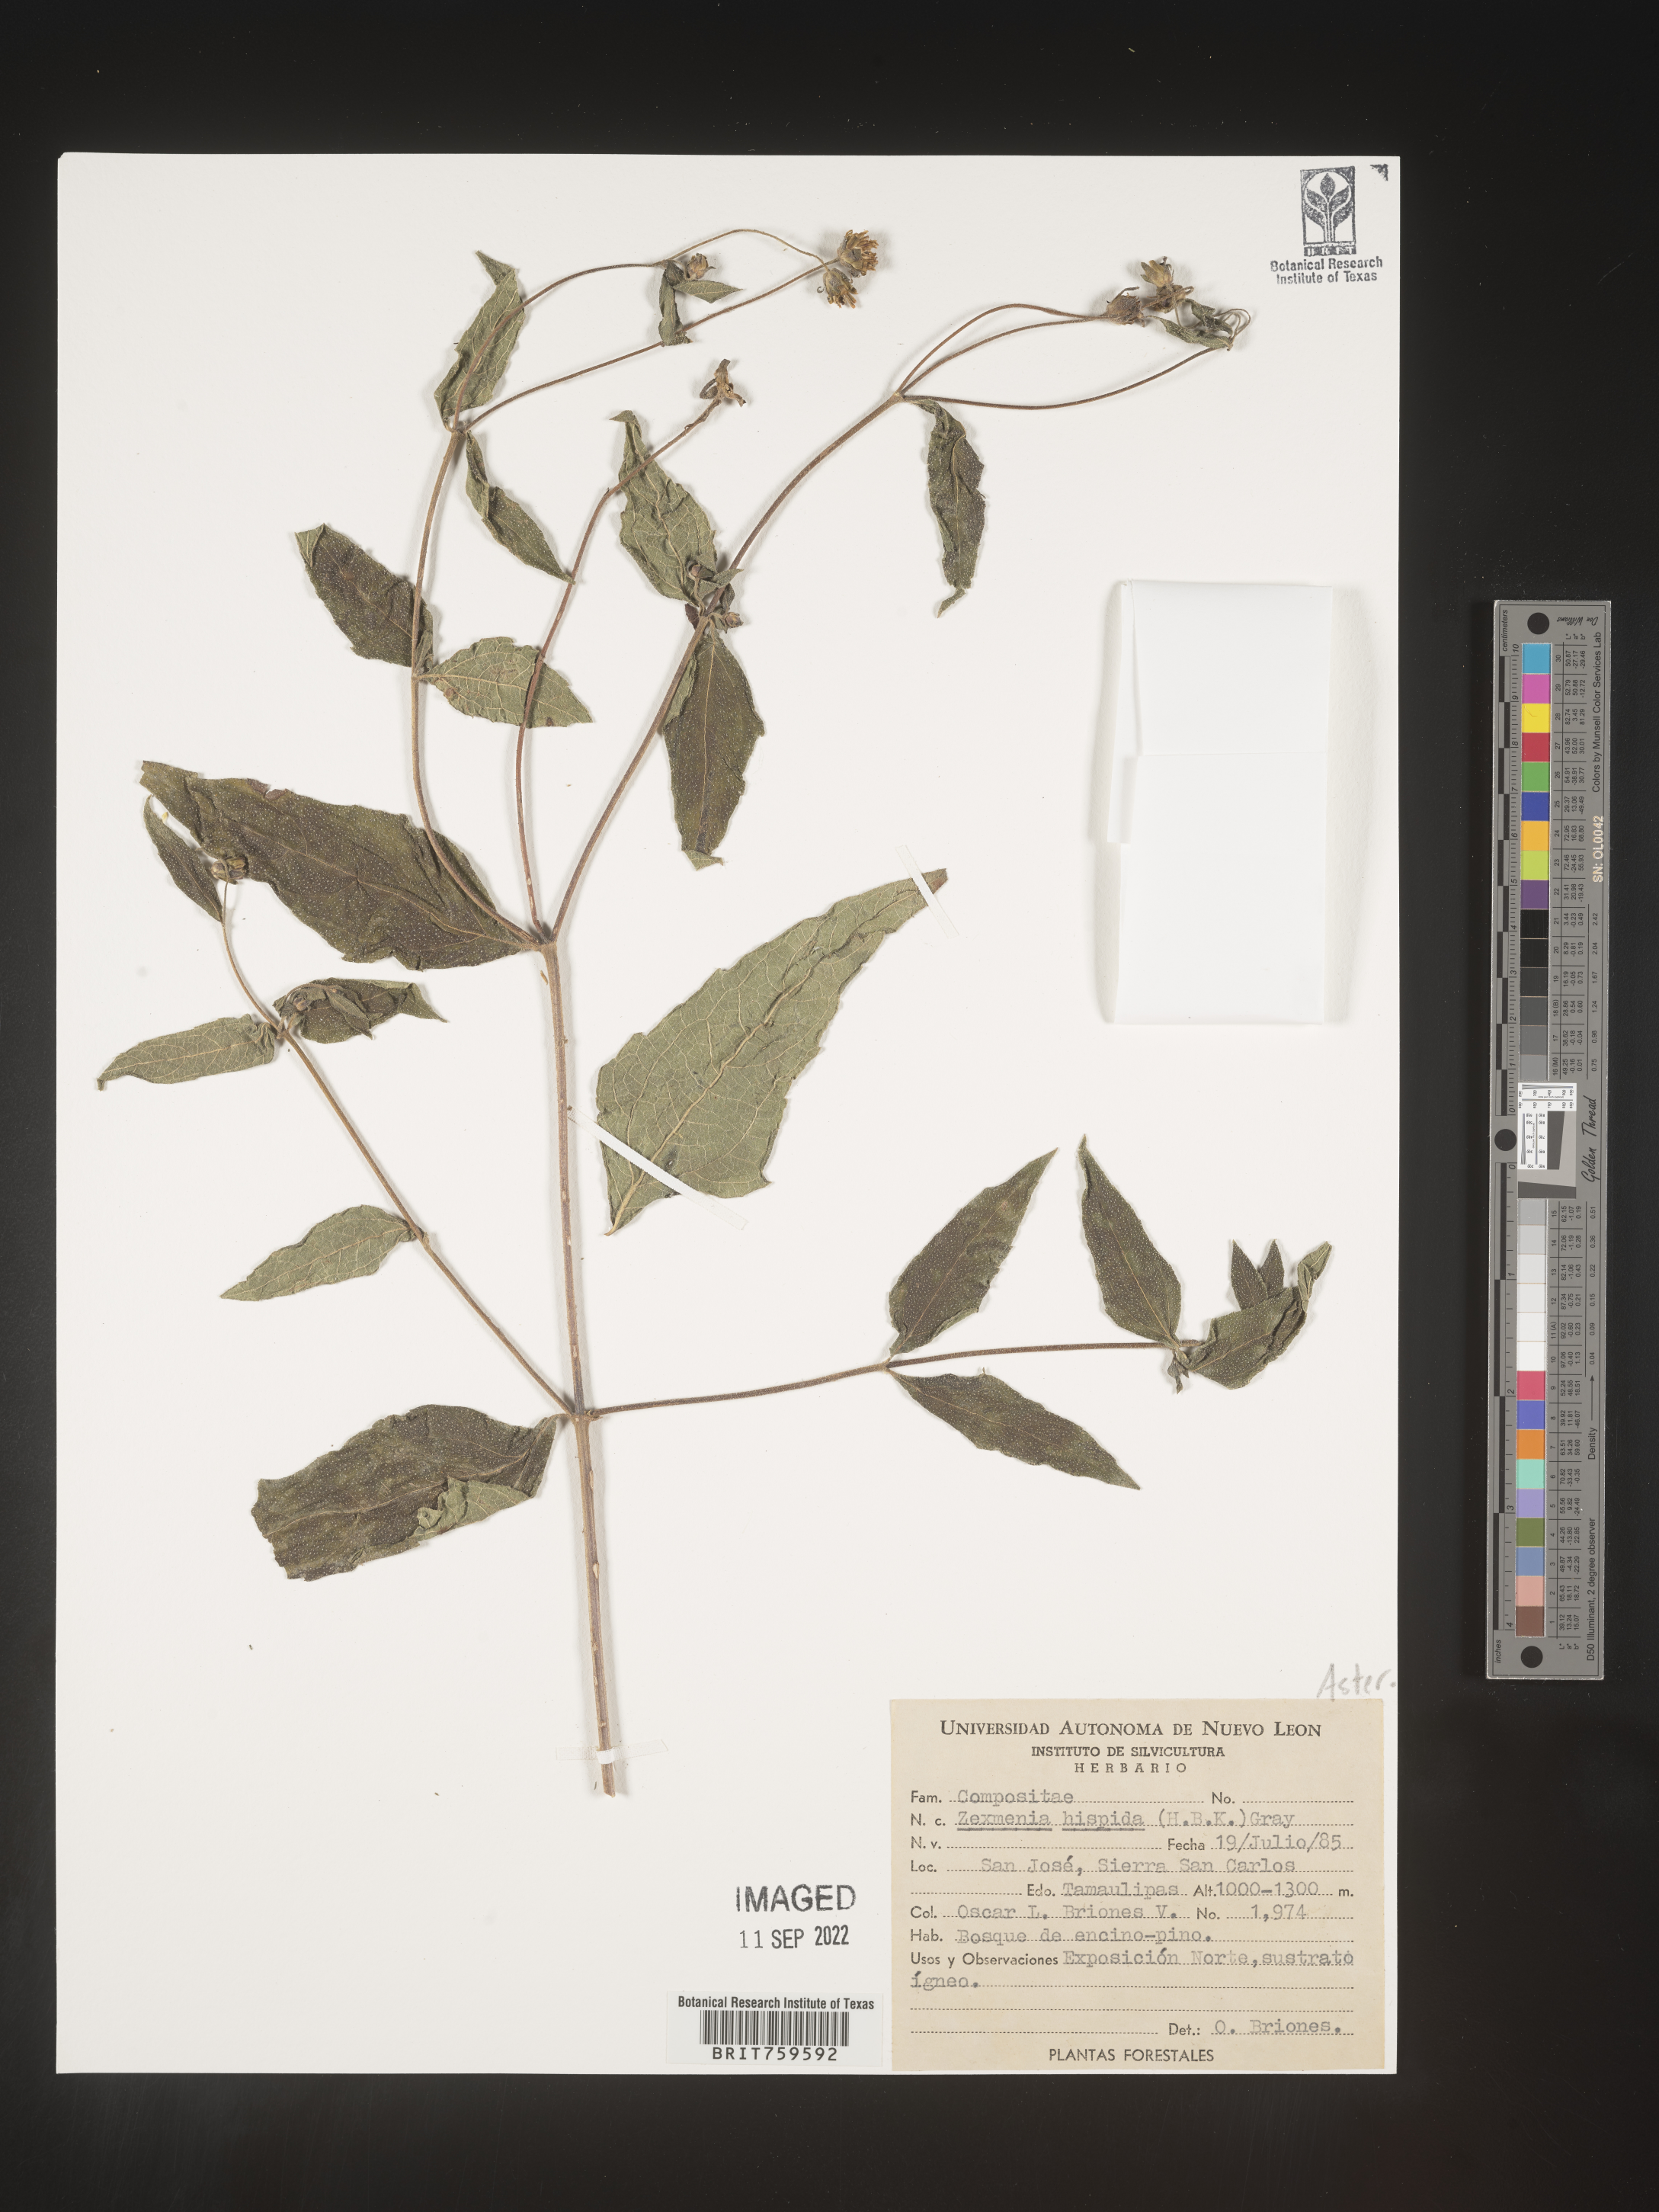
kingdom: Plantae
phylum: Tracheophyta
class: Magnoliopsida
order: Asterales
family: Asteraceae
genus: Zexmenia
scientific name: Zexmenia
